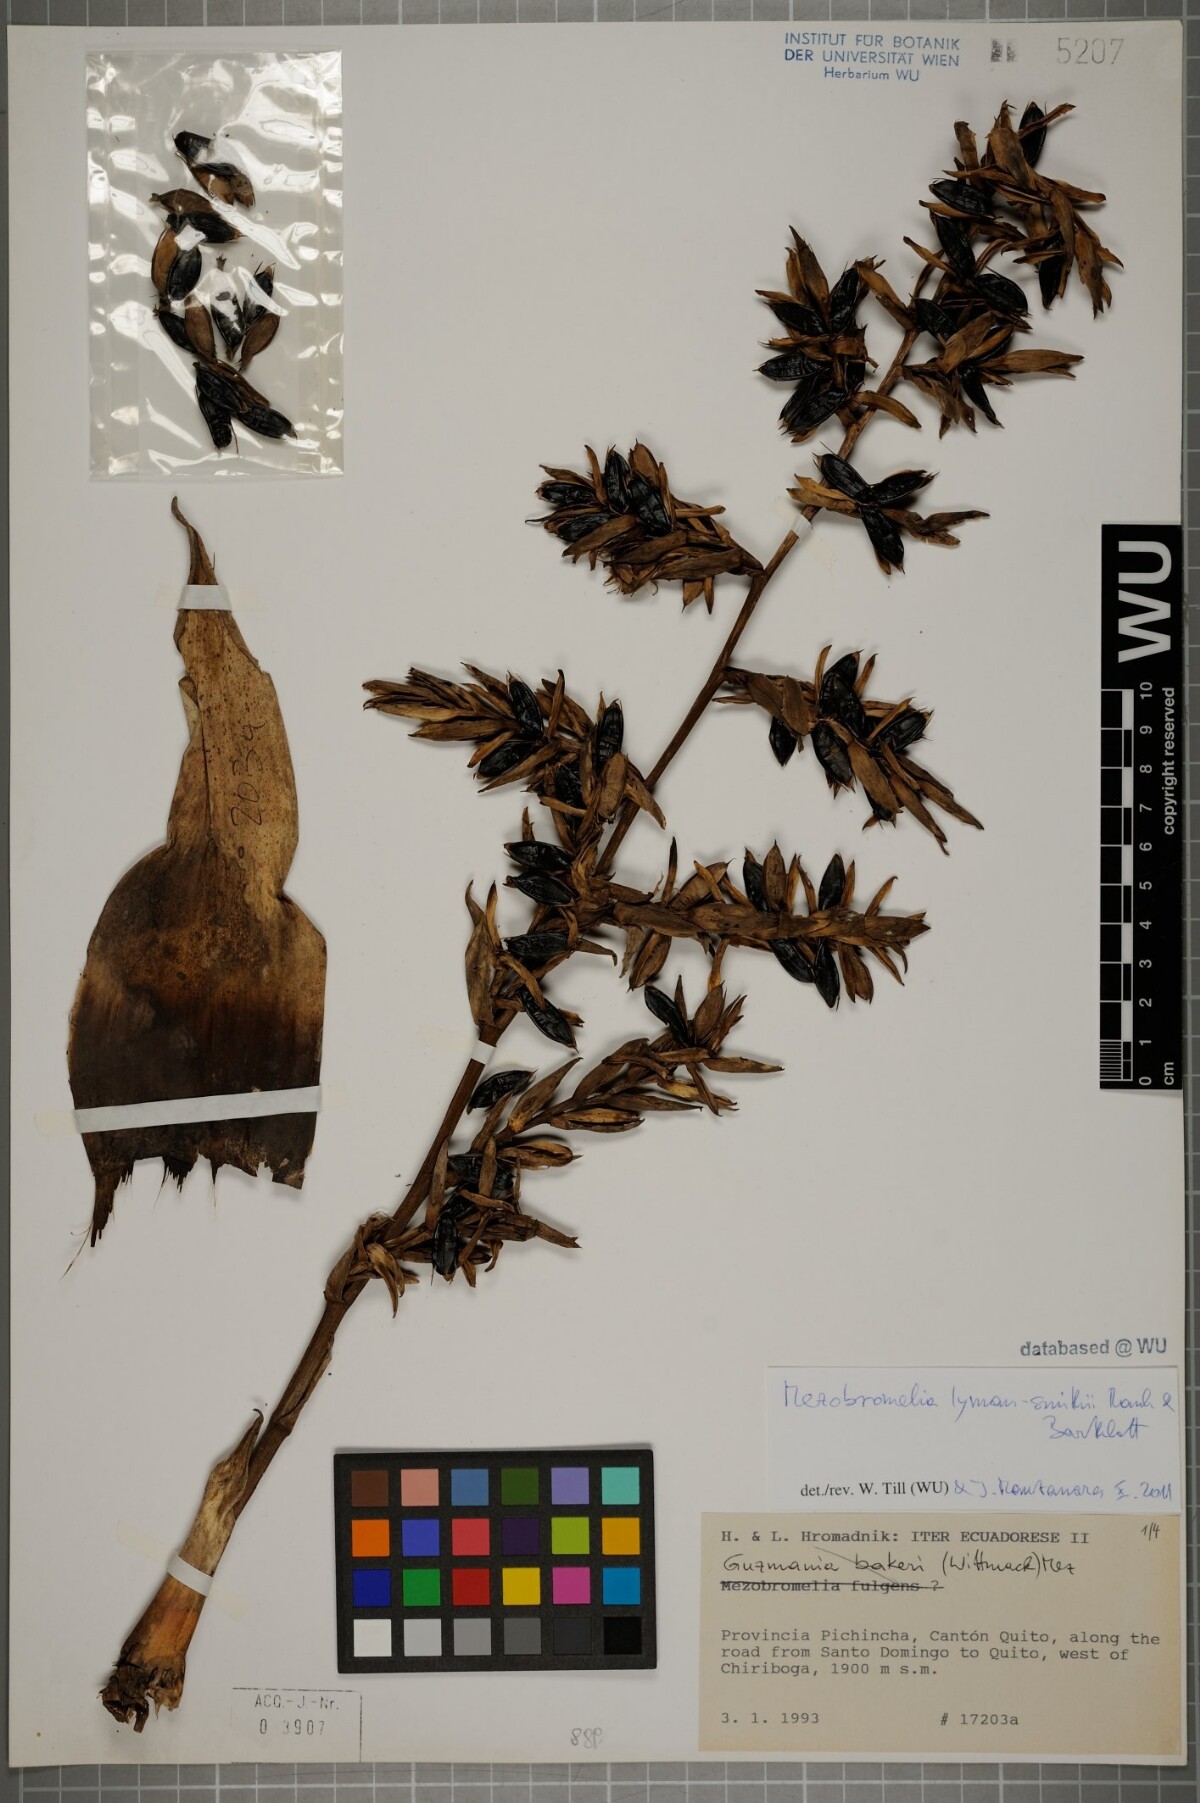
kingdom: Plantae
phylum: Tracheophyta
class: Liliopsida
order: Poales
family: Bromeliaceae
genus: Gregbrownia
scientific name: Gregbrownia lyman-smithii
